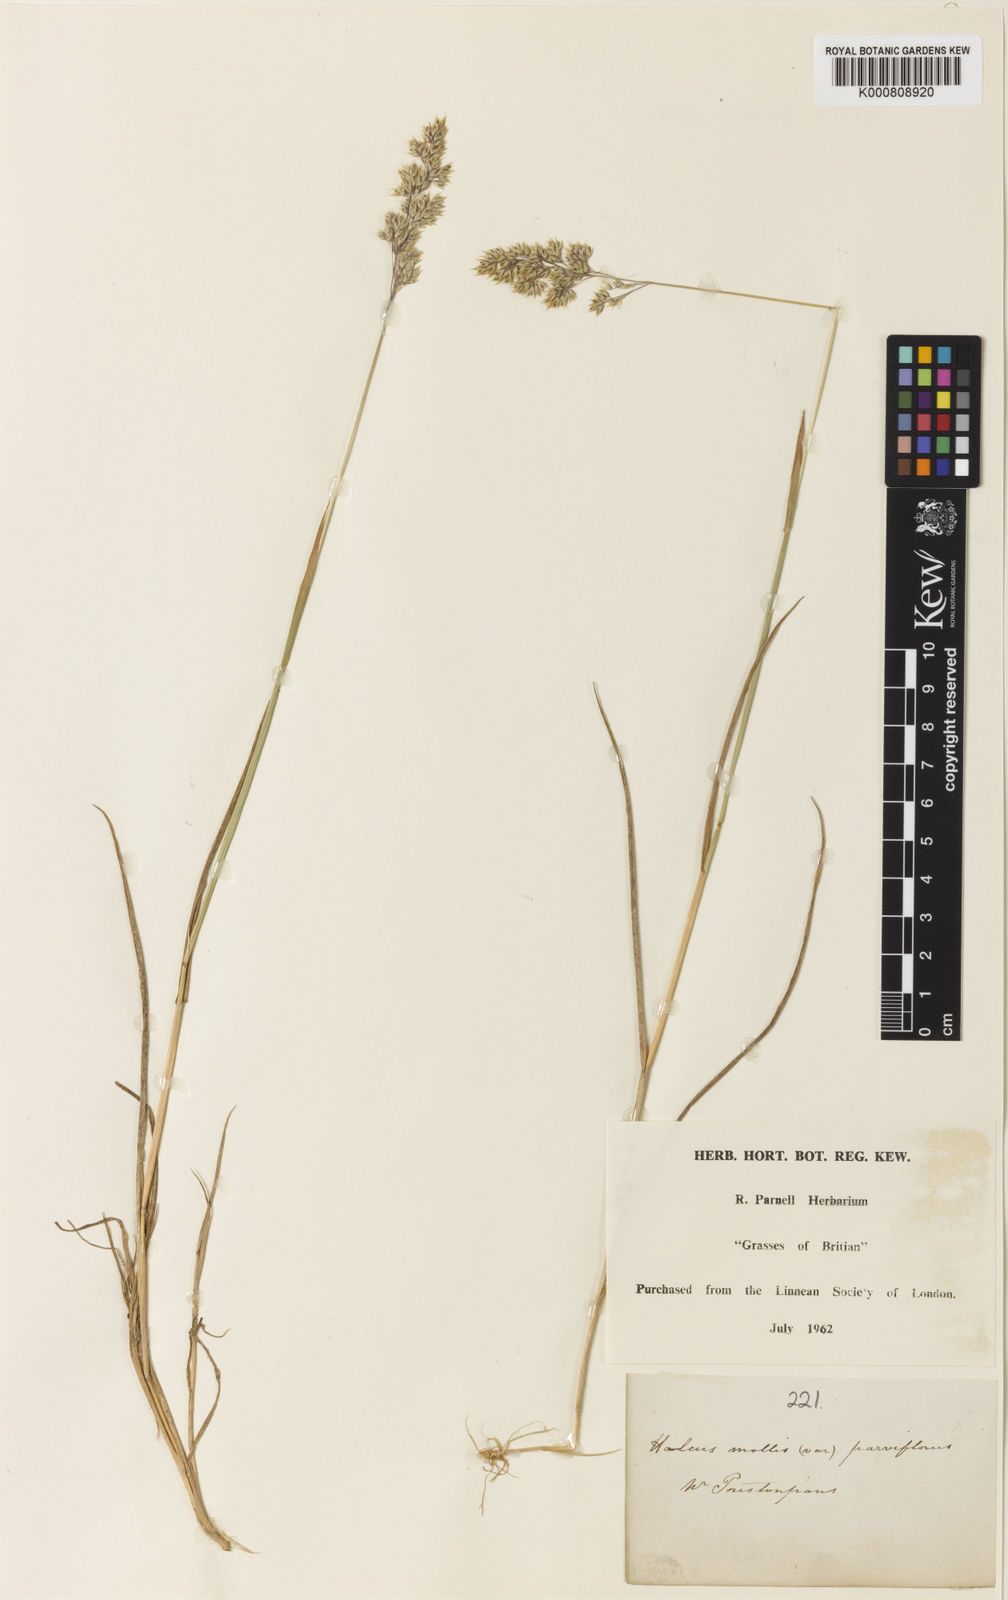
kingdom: Plantae
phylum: Tracheophyta
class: Liliopsida
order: Poales
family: Poaceae
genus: Holcus
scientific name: Holcus mollis
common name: Creeping velvetgrass
